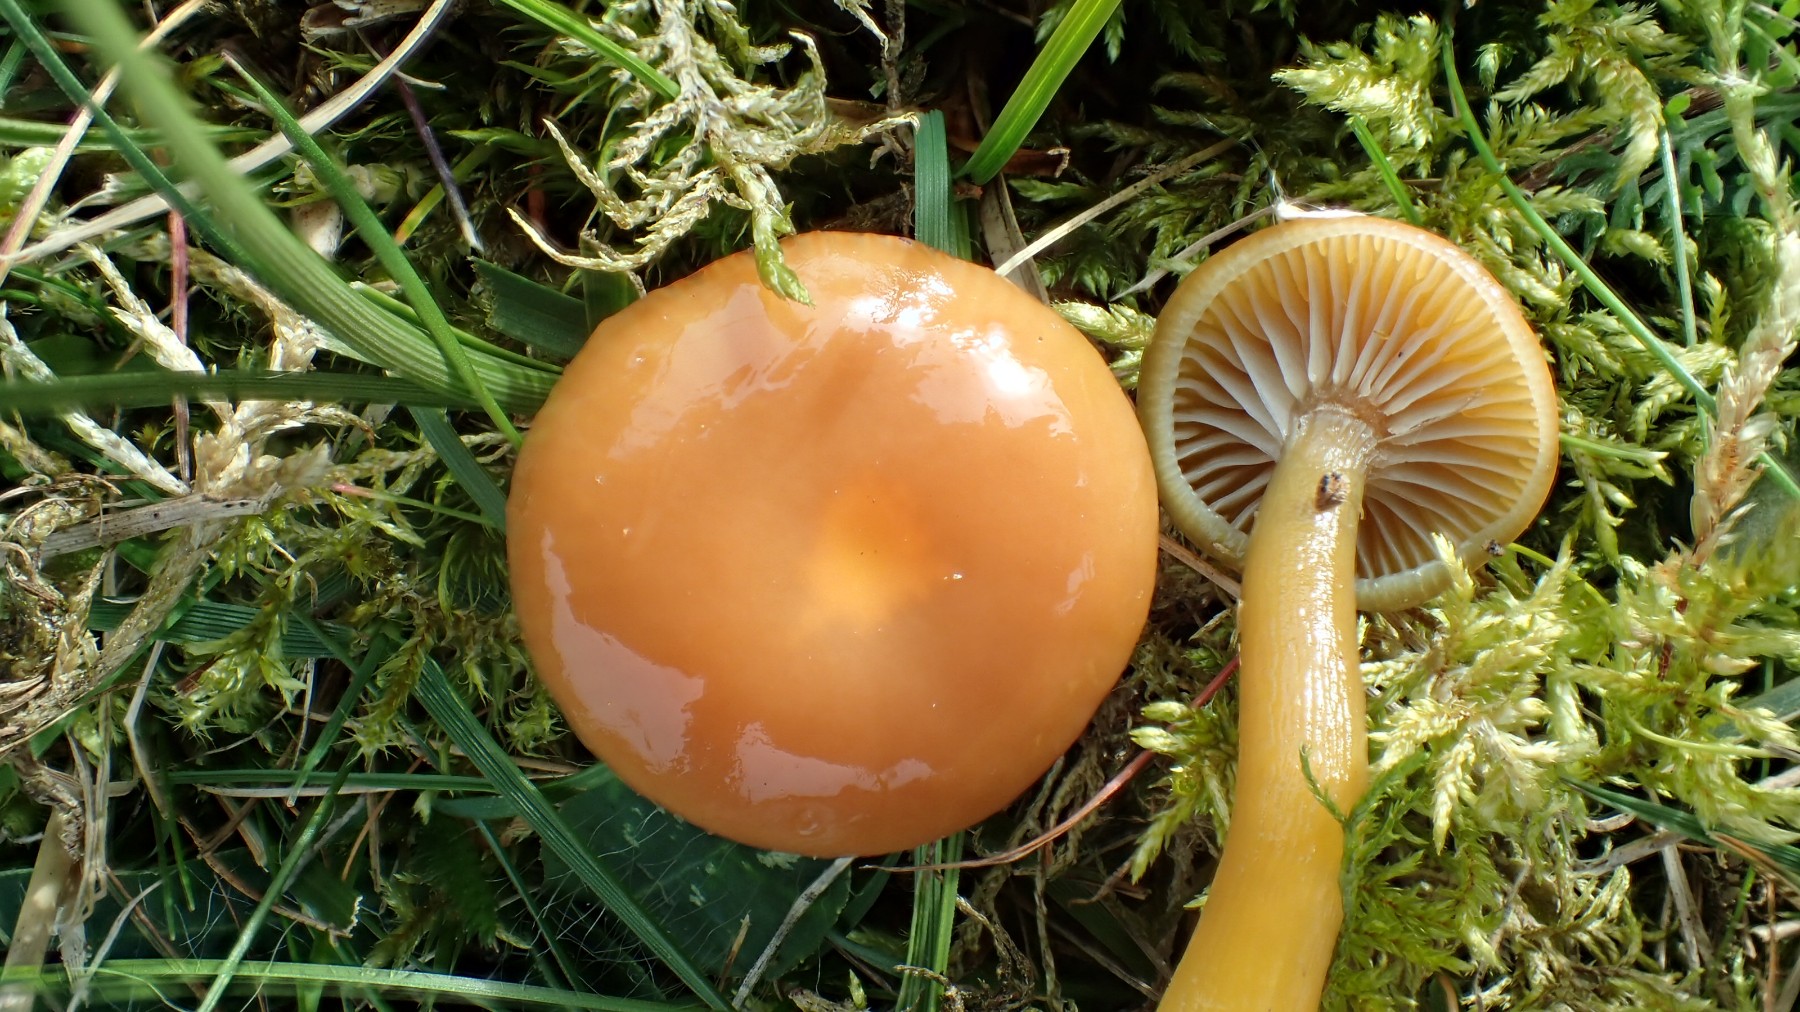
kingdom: Fungi
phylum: Basidiomycota
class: Agaricomycetes
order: Agaricales
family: Hygrophoraceae
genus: Gliophorus
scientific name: Gliophorus laetus
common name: brusk-vokshat
